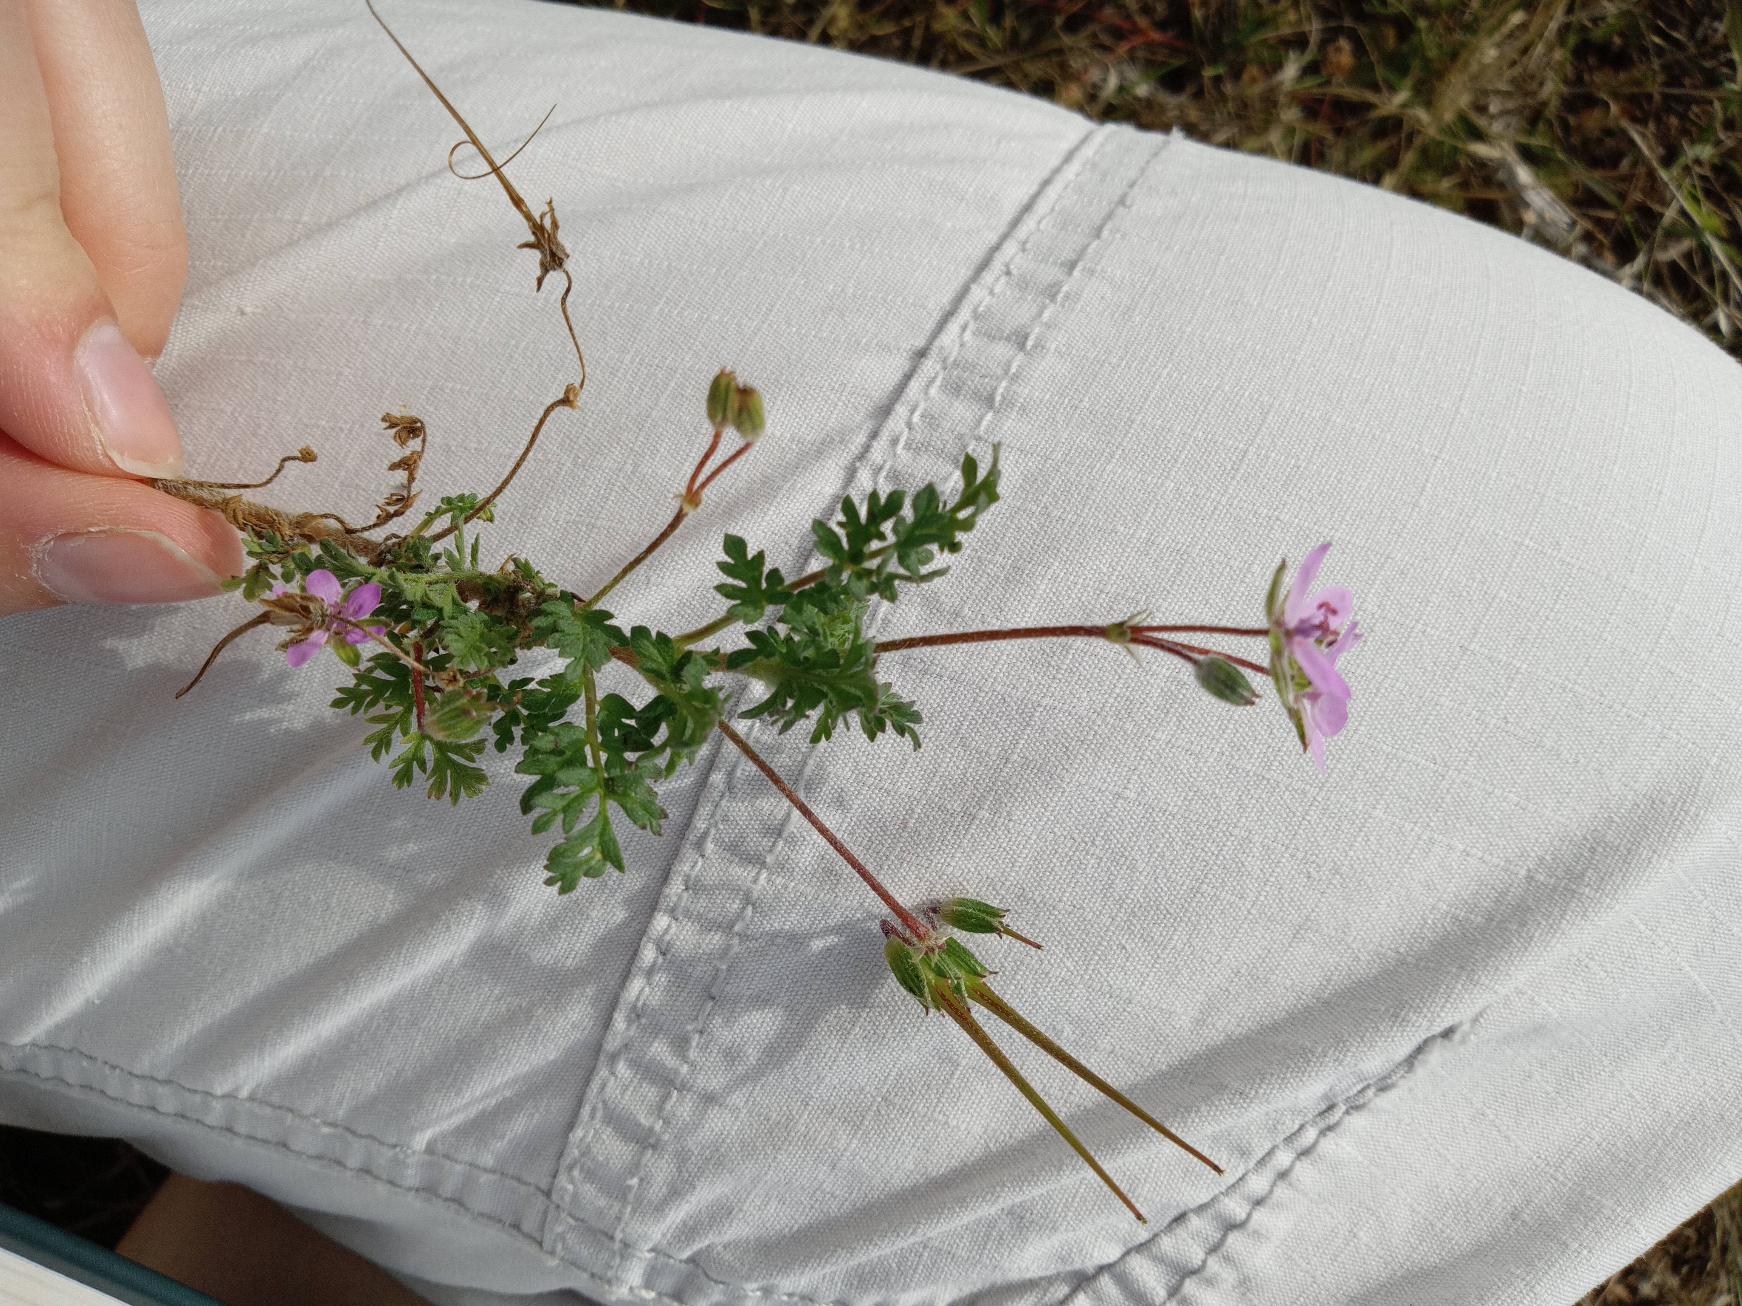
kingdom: Plantae
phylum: Tracheophyta
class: Magnoliopsida
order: Geraniales
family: Geraniaceae
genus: Erodium
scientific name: Erodium cicutarium
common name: Hejrenæb
